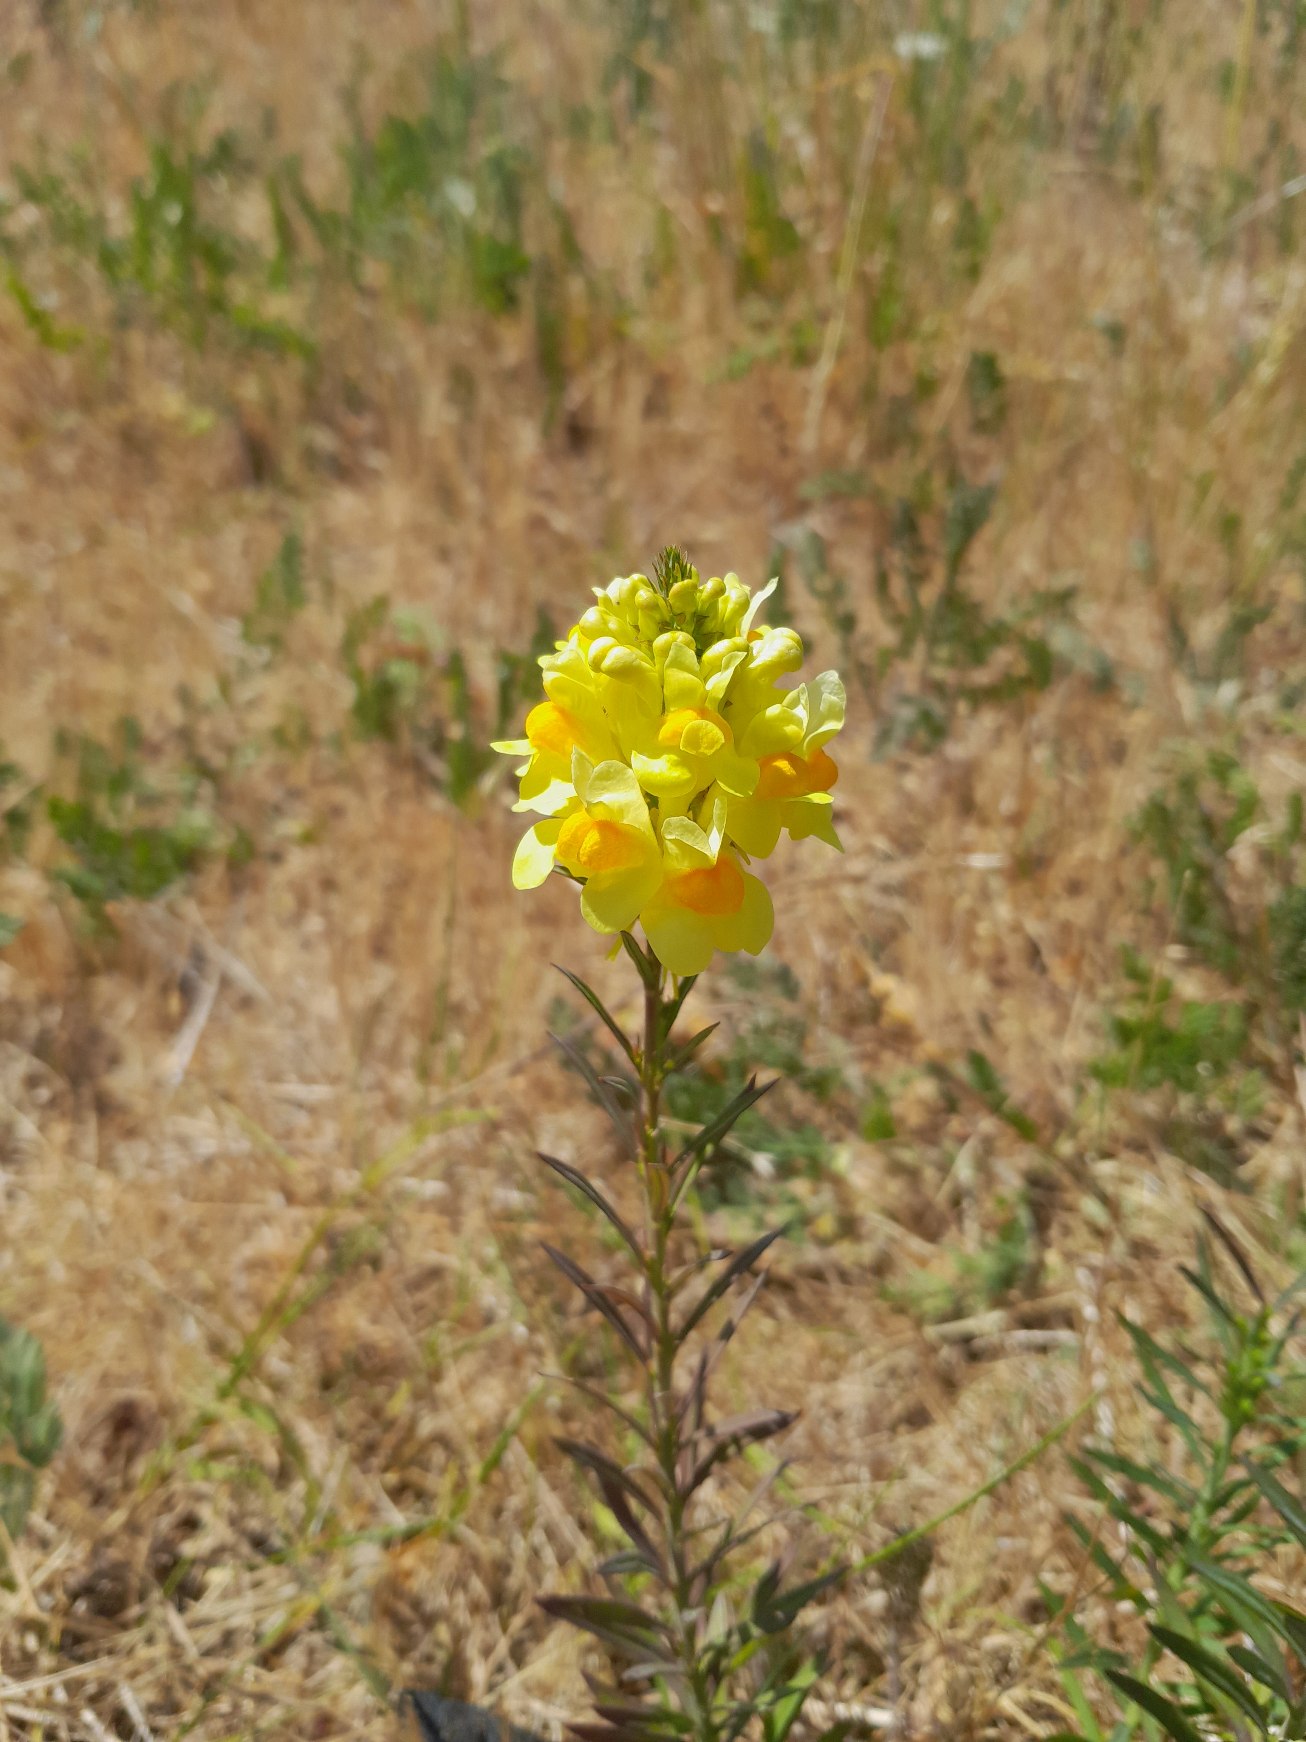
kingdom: Plantae
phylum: Tracheophyta
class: Magnoliopsida
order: Lamiales
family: Plantaginaceae
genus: Linaria
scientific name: Linaria vulgaris
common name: Almindelig torskemund
